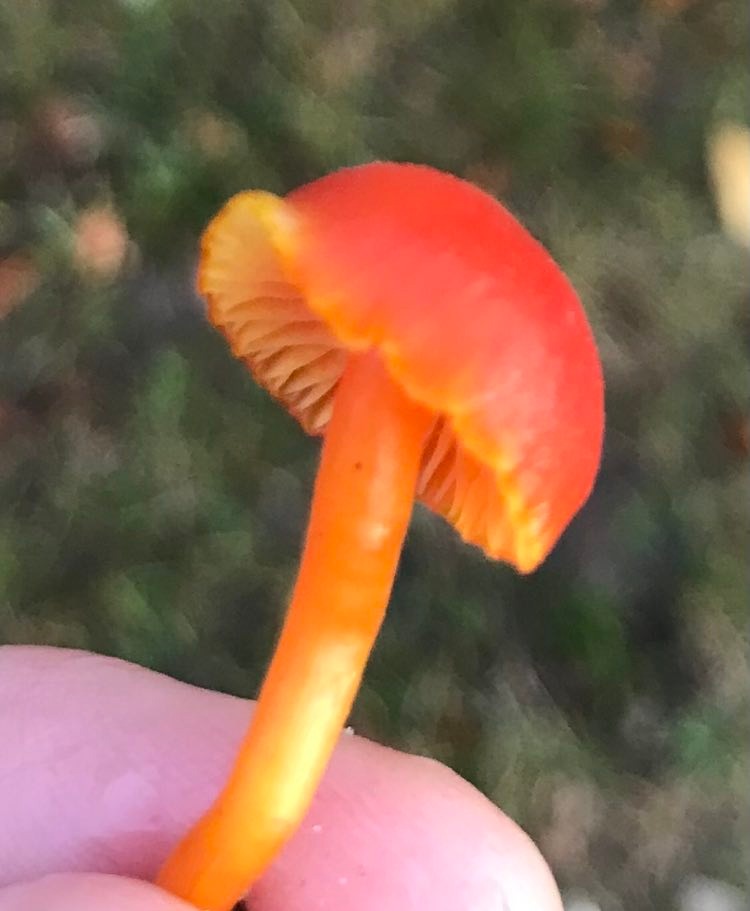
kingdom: Fungi
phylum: Basidiomycota
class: Agaricomycetes
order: Agaricales
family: Hygrophoraceae
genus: Hygrocybe
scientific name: Hygrocybe miniata
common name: mønje-vokshat
